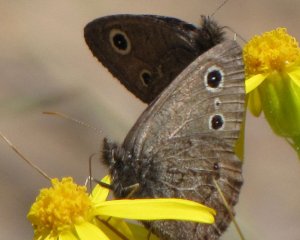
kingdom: Animalia
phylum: Arthropoda
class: Insecta
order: Lepidoptera
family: Nymphalidae
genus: Cercyonis
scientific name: Cercyonis oetus
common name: Small Wood-Nymph
